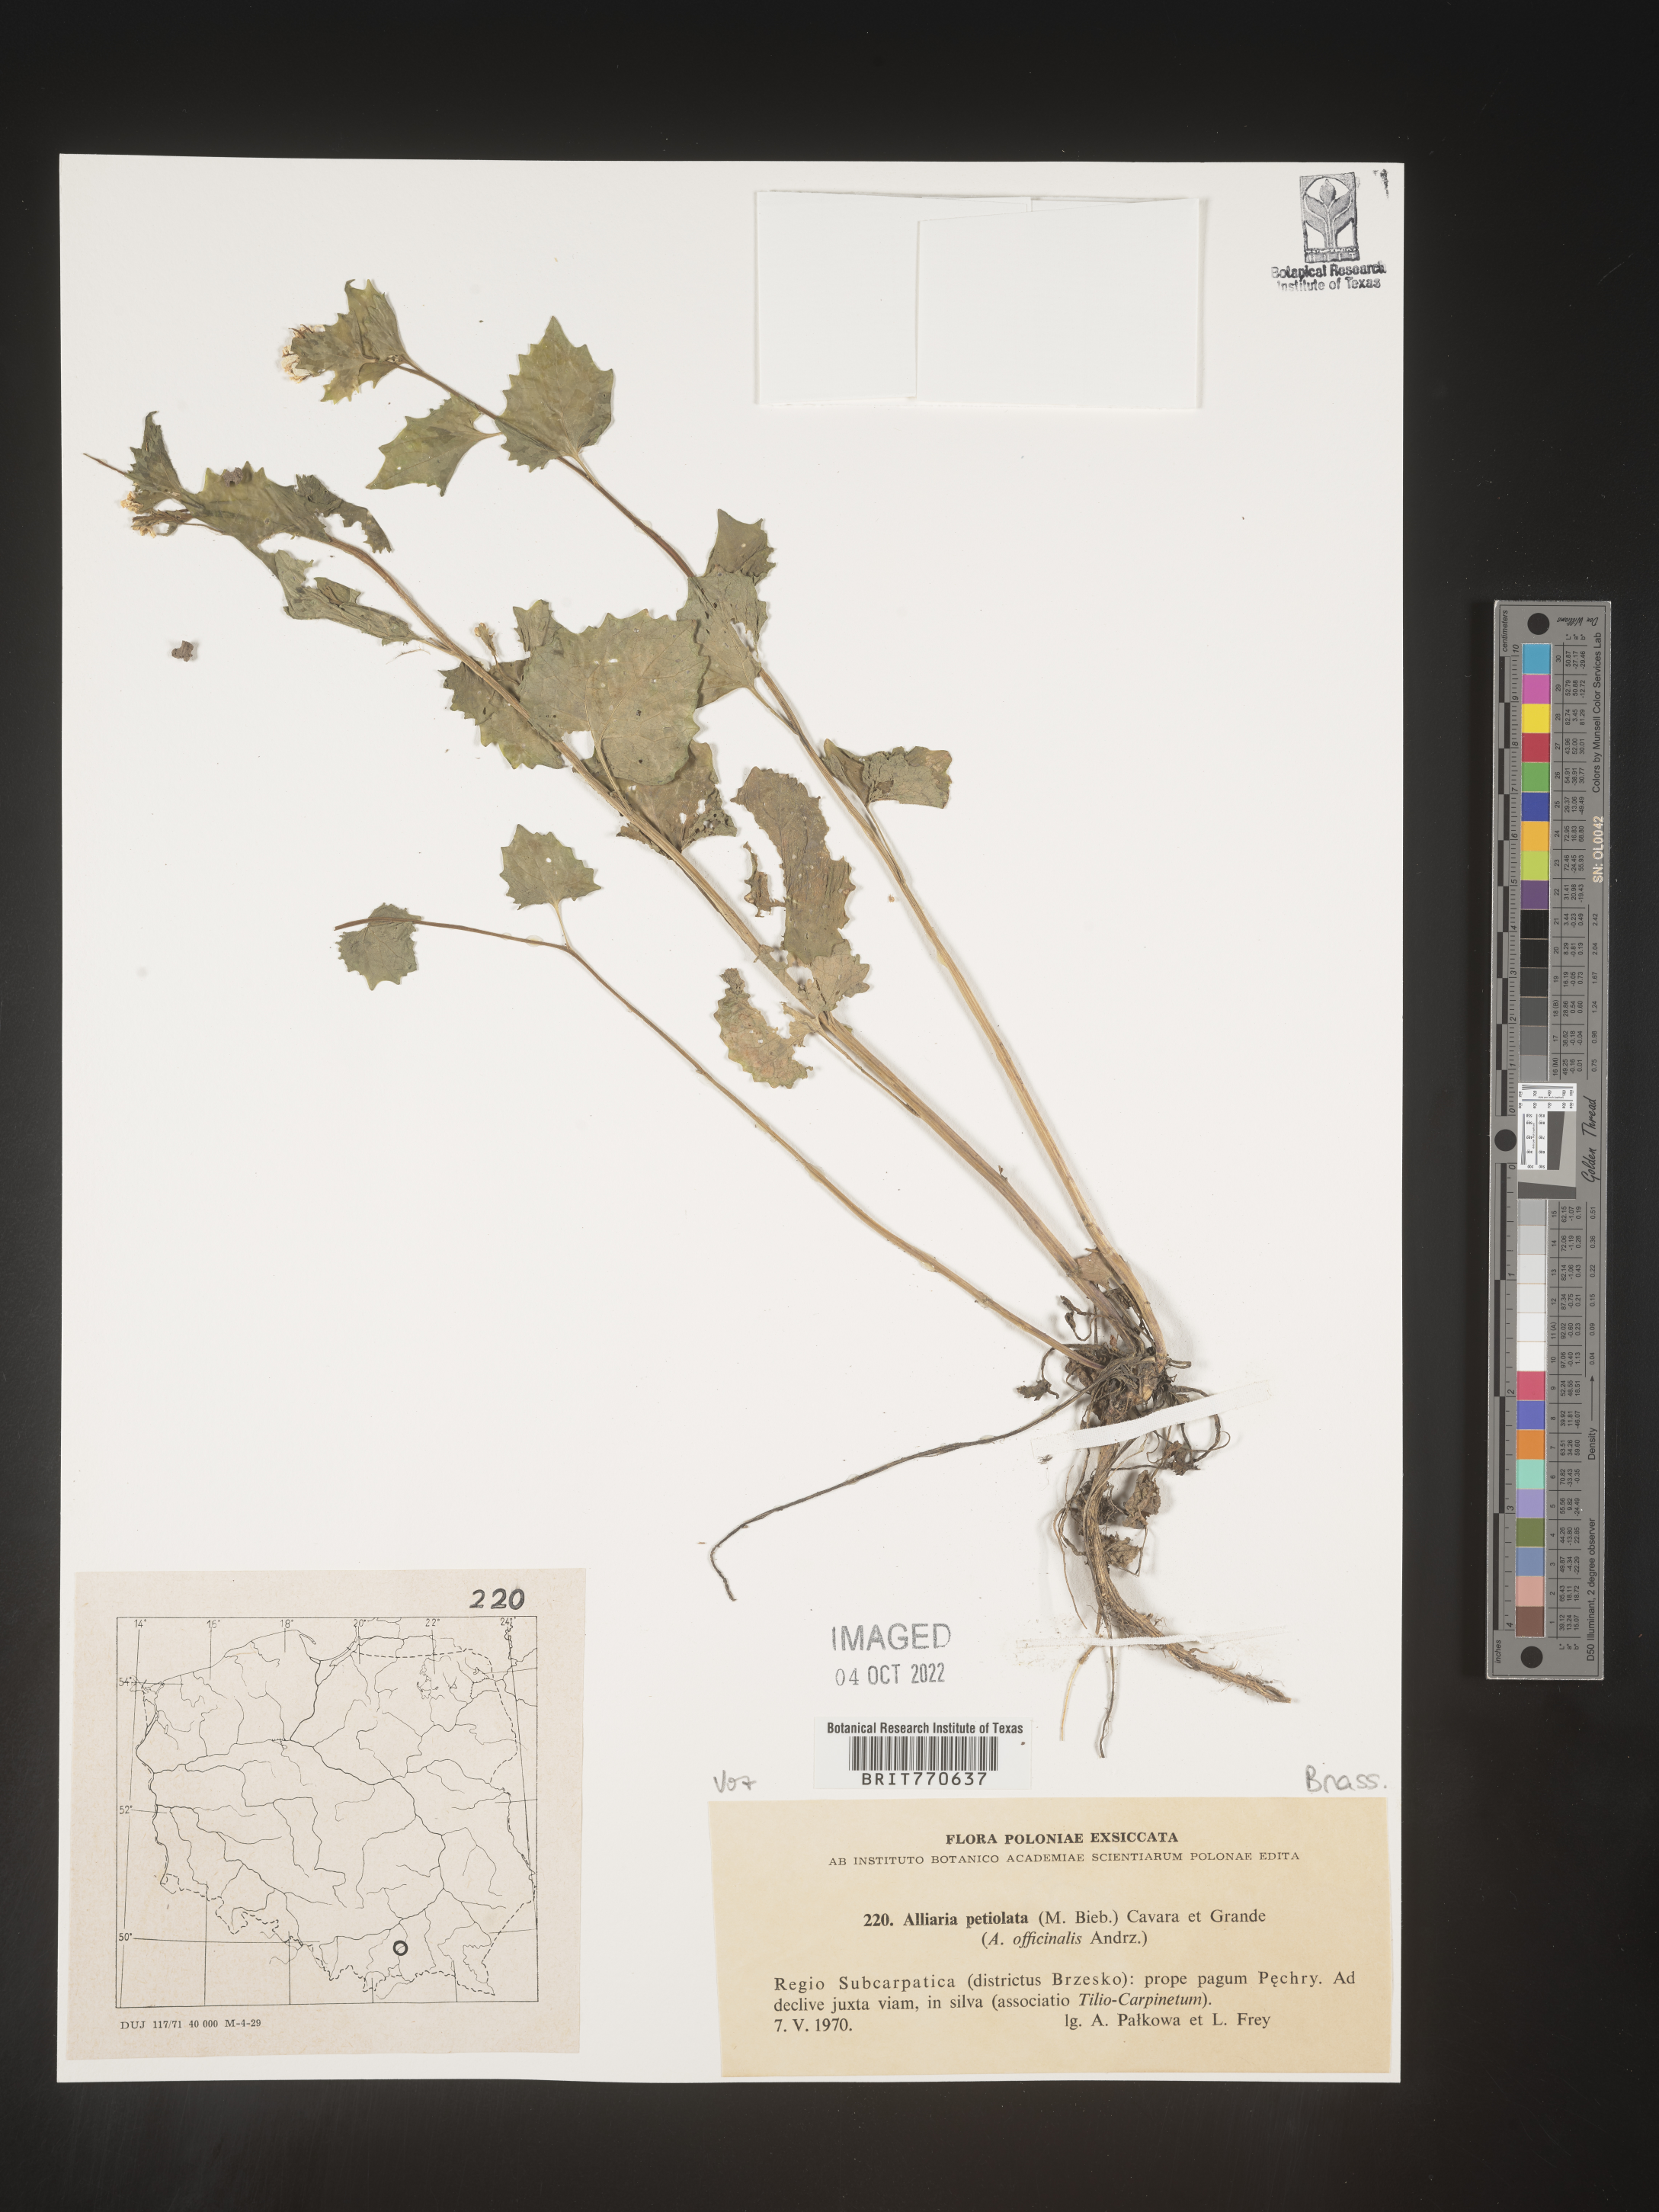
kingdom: Plantae
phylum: Tracheophyta
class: Magnoliopsida
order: Brassicales
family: Brassicaceae
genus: Alliaria
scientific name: Alliaria
